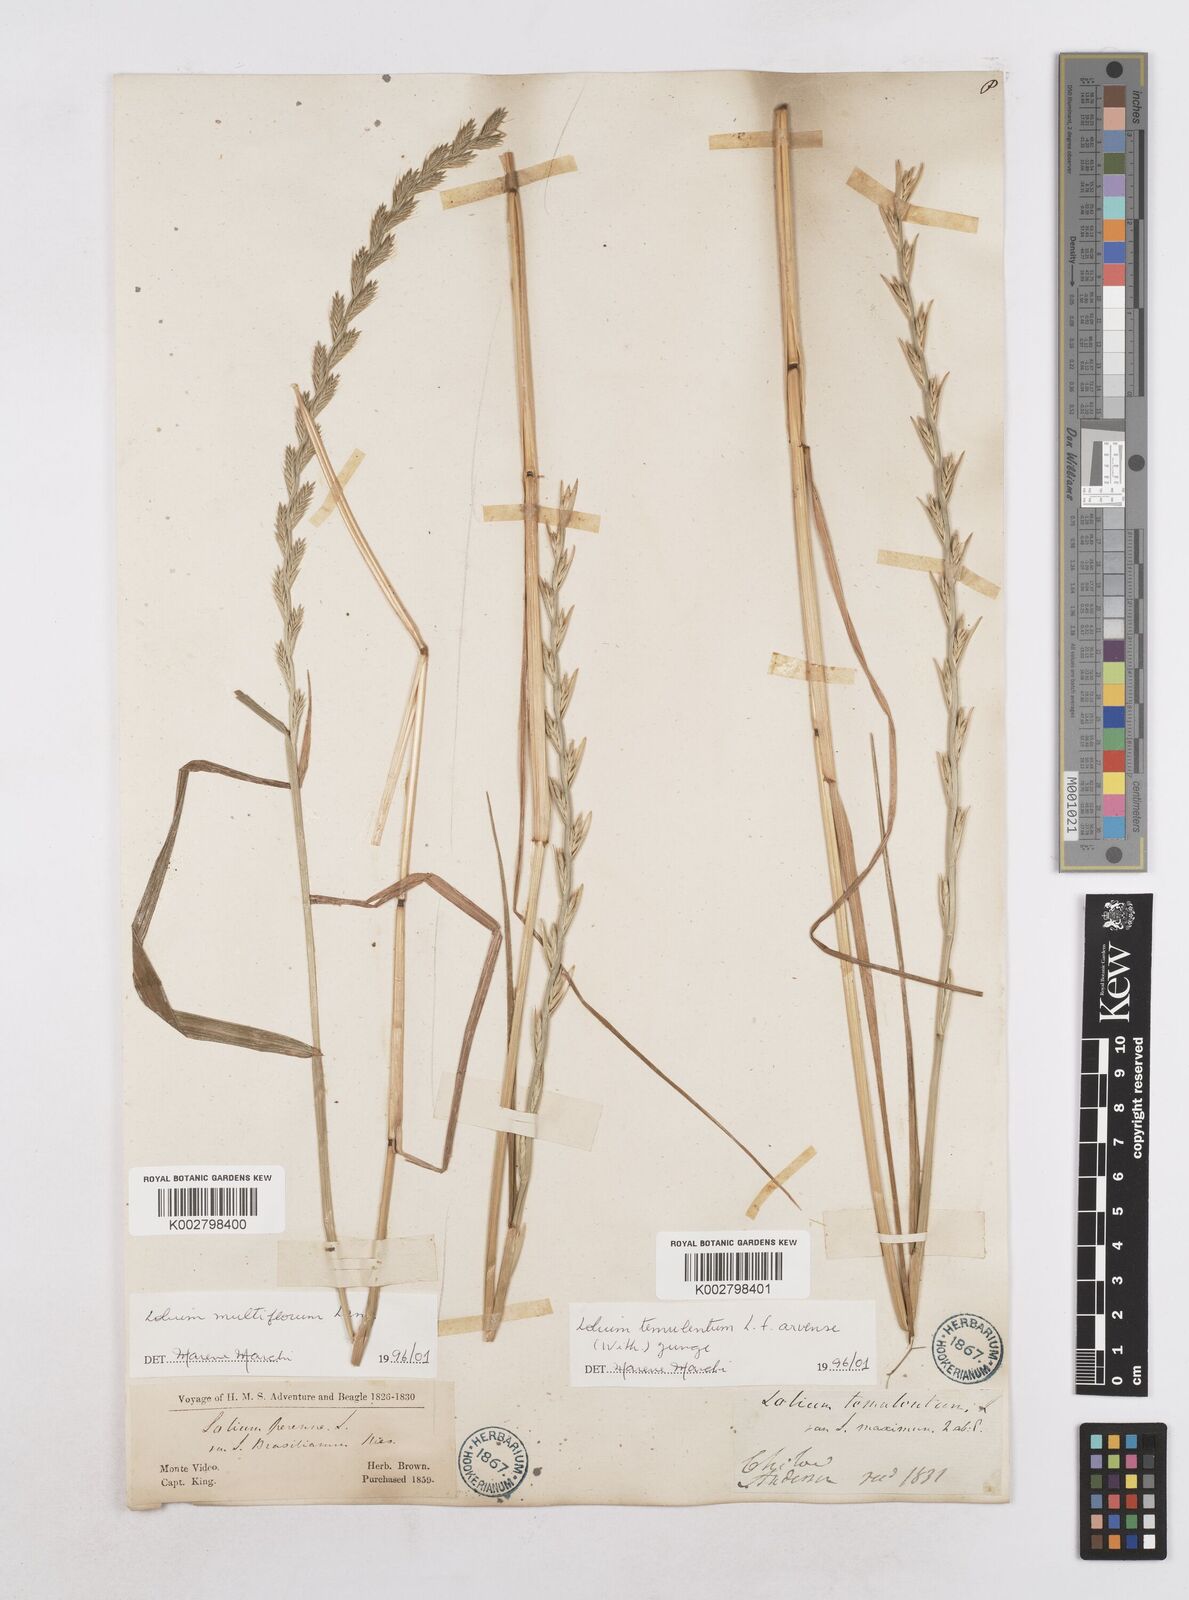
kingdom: Plantae
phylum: Tracheophyta
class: Liliopsida
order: Poales
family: Poaceae
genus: Lolium
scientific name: Lolium temulentum
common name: Darnel
